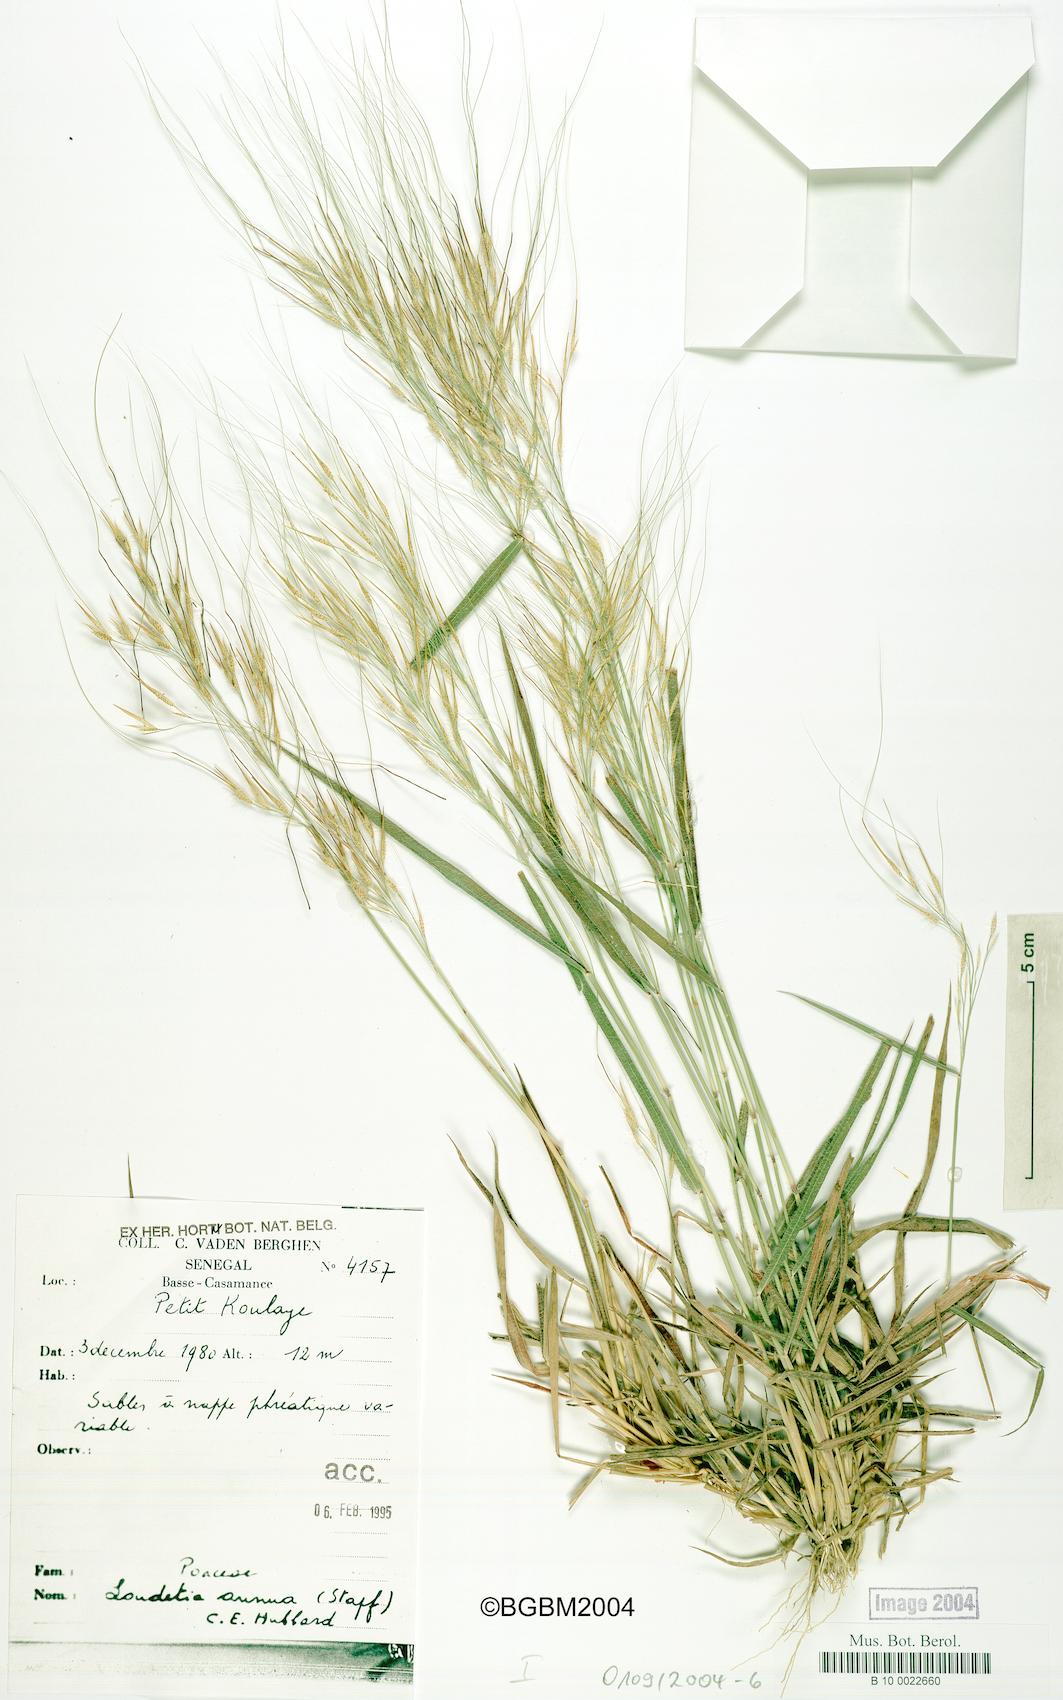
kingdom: Plantae
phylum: Tracheophyta
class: Liliopsida
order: Poales
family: Poaceae
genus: Loudetia
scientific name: Loudetia annua
